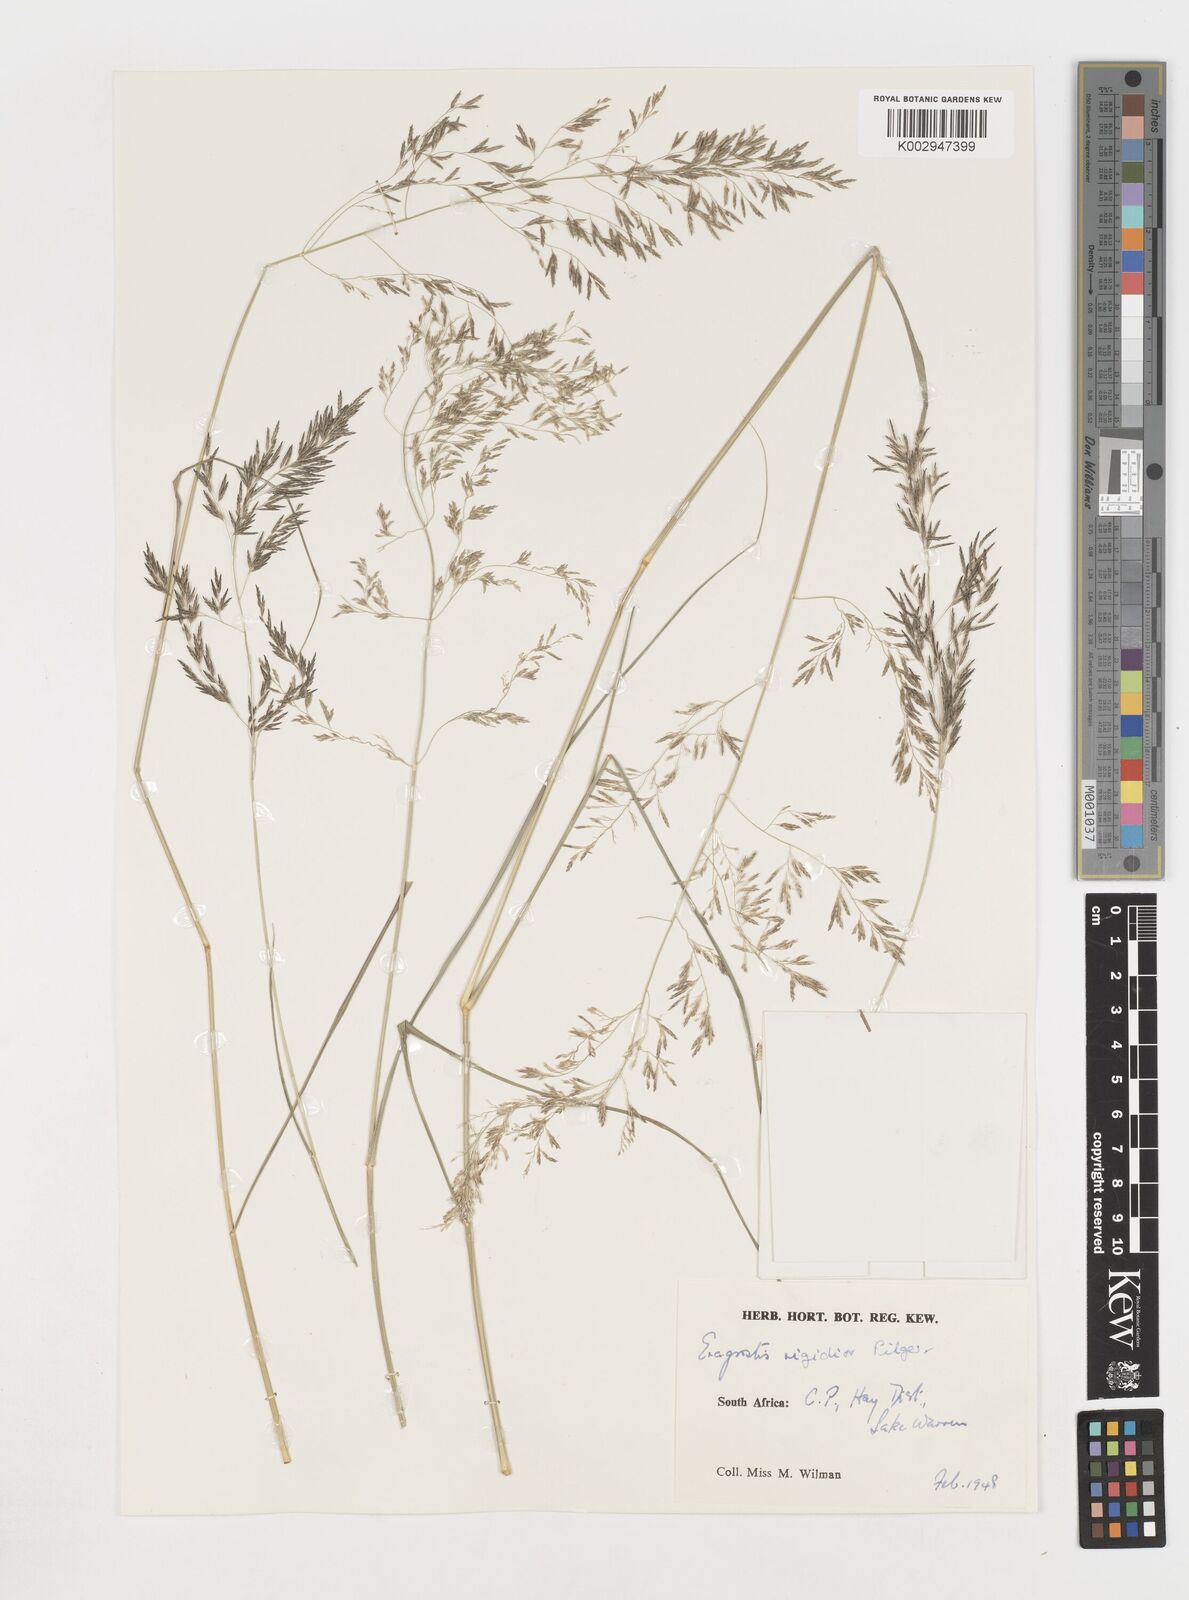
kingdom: Plantae
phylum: Tracheophyta
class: Liliopsida
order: Poales
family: Poaceae
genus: Eragrostis
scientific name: Eragrostis
